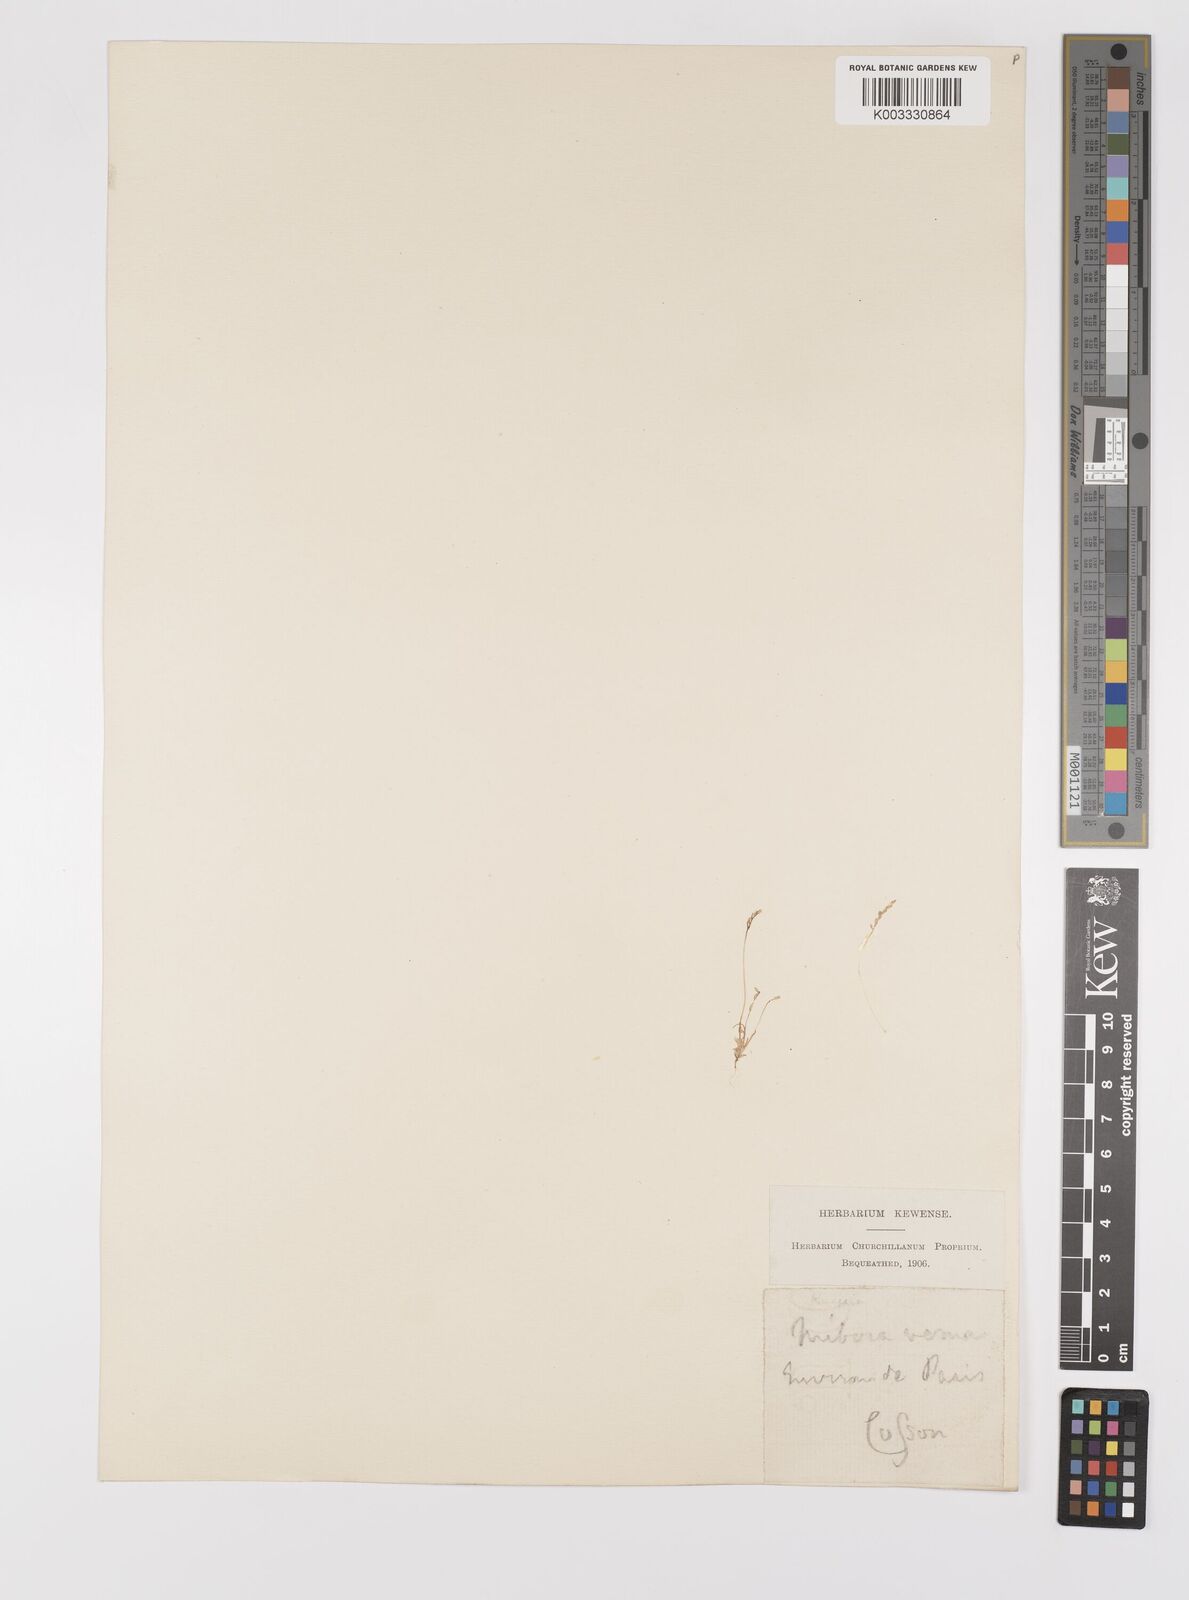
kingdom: Plantae
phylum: Tracheophyta
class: Liliopsida
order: Poales
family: Poaceae
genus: Mibora
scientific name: Mibora minima
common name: Early sand-grass
